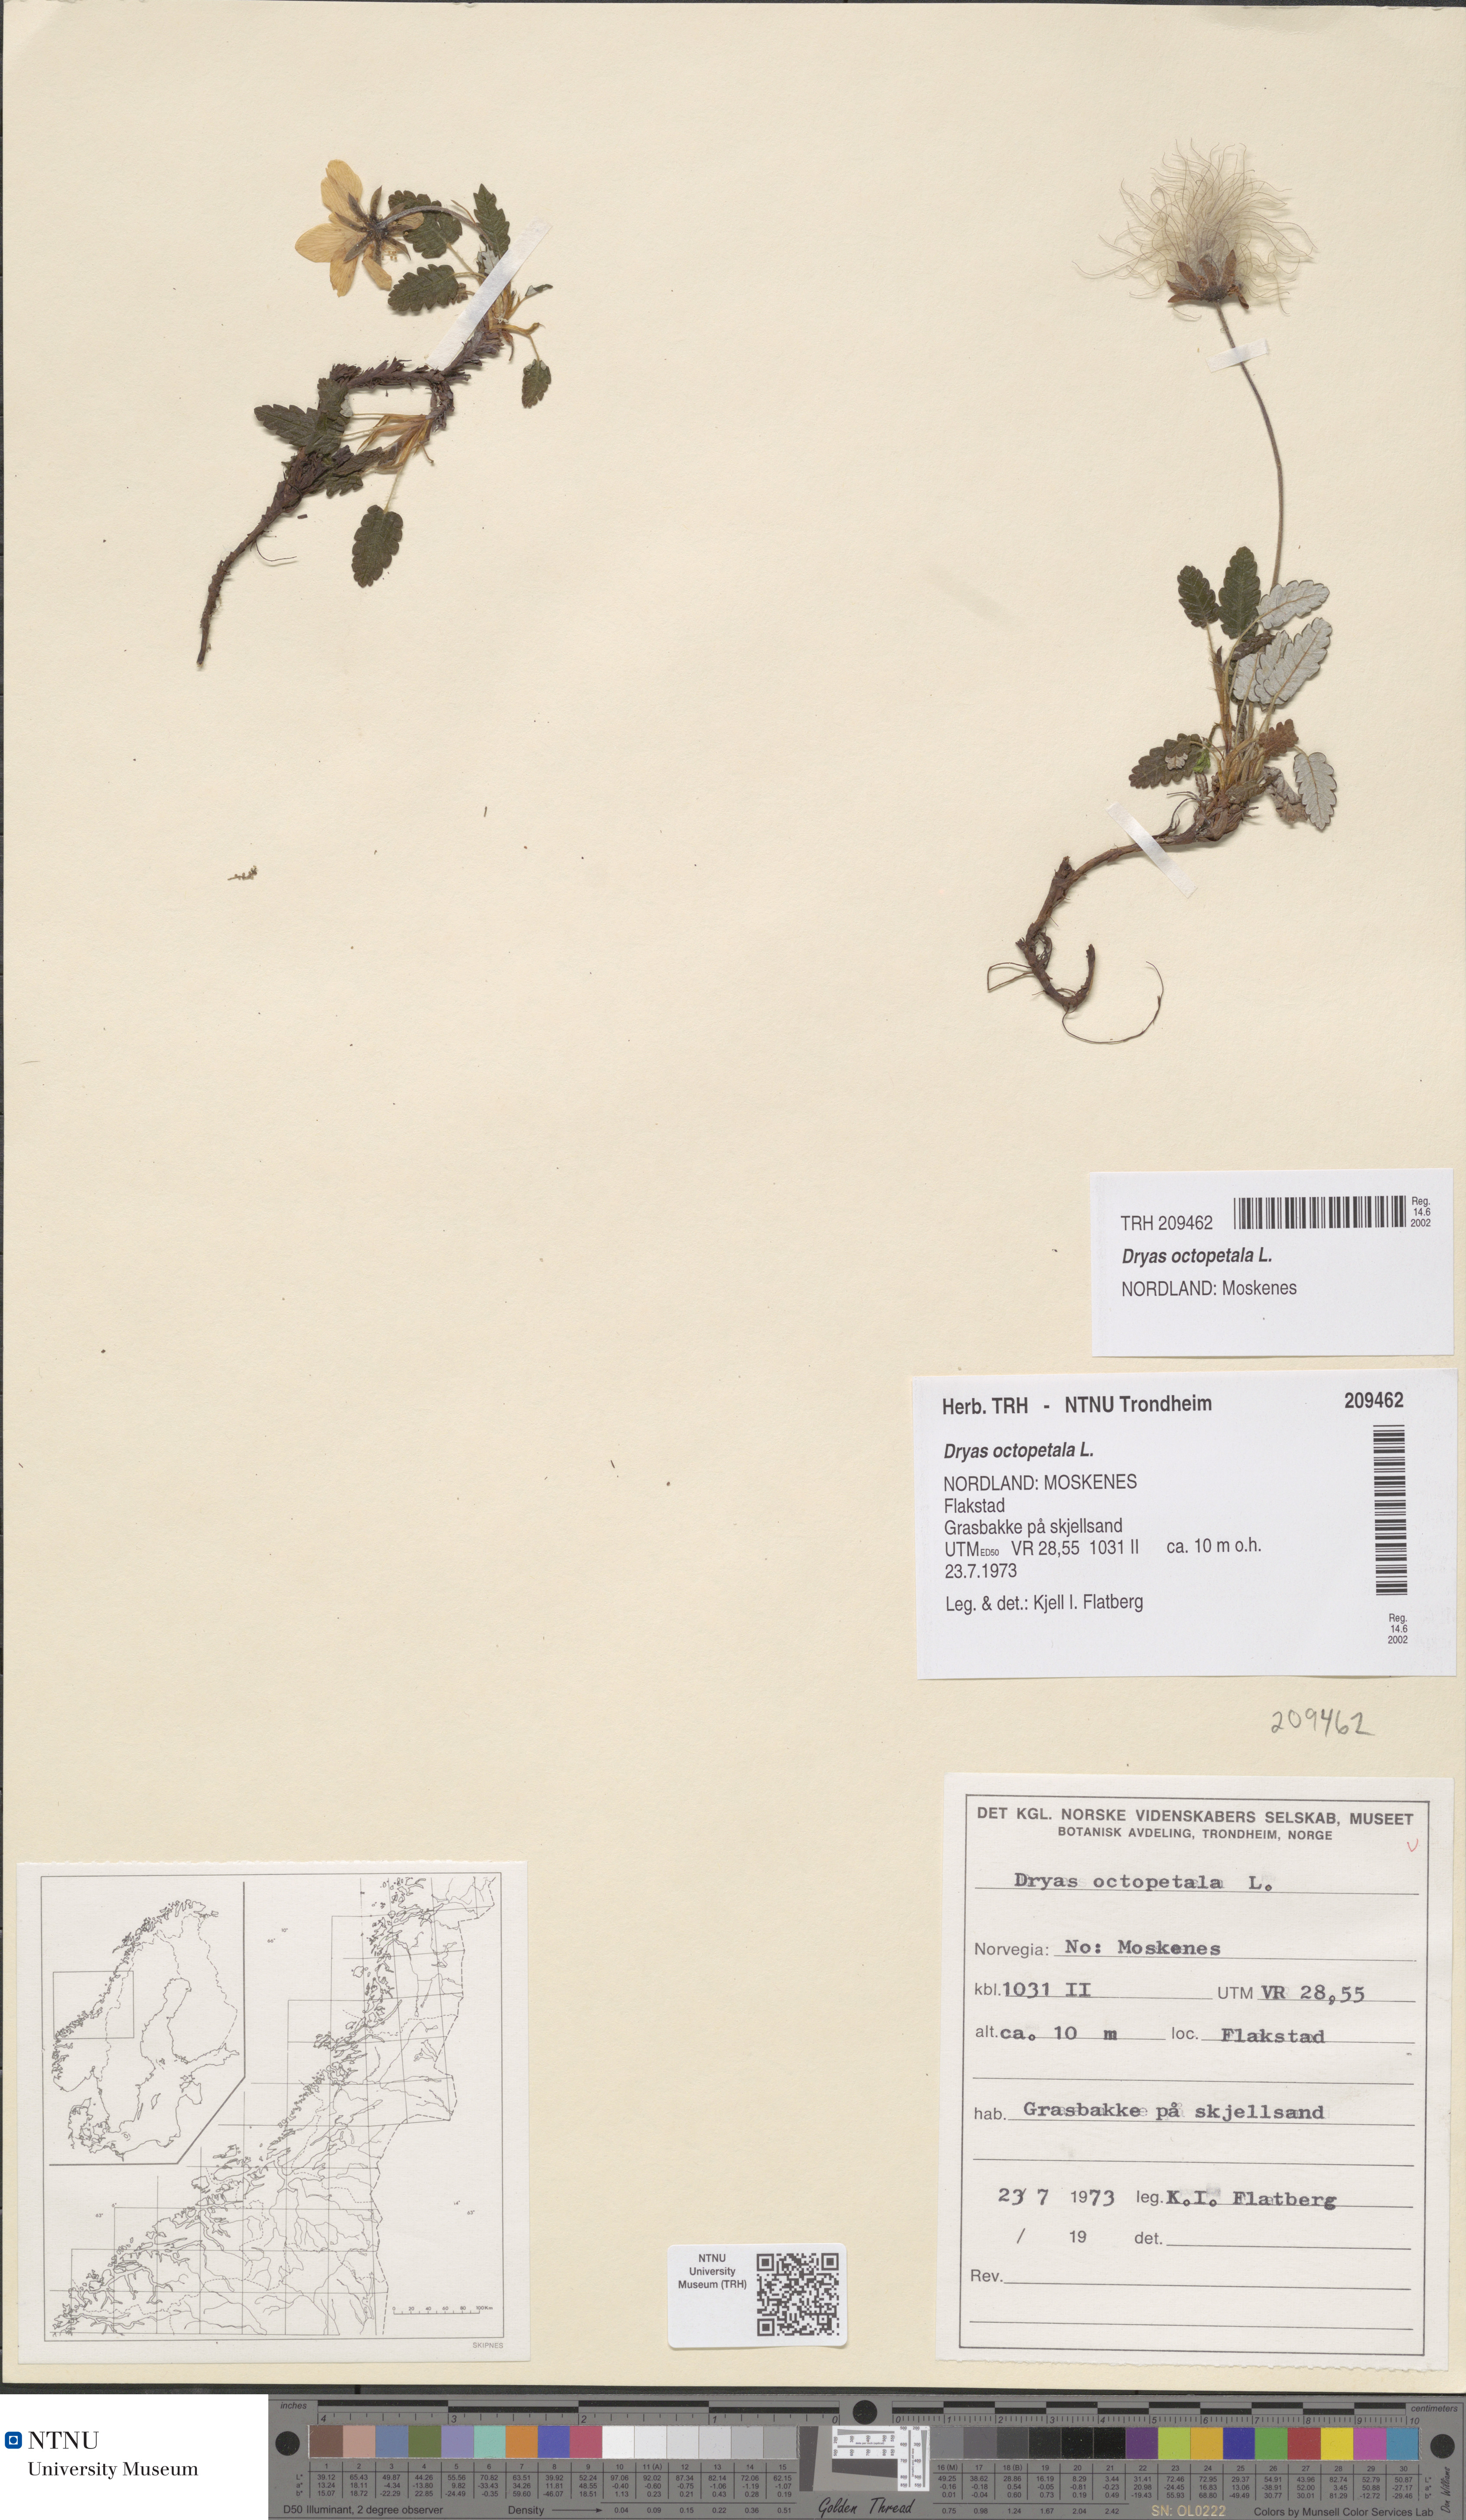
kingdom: Plantae
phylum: Tracheophyta
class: Magnoliopsida
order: Rosales
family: Rosaceae
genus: Dryas
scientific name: Dryas octopetala
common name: Eight-petal mountain-avens
